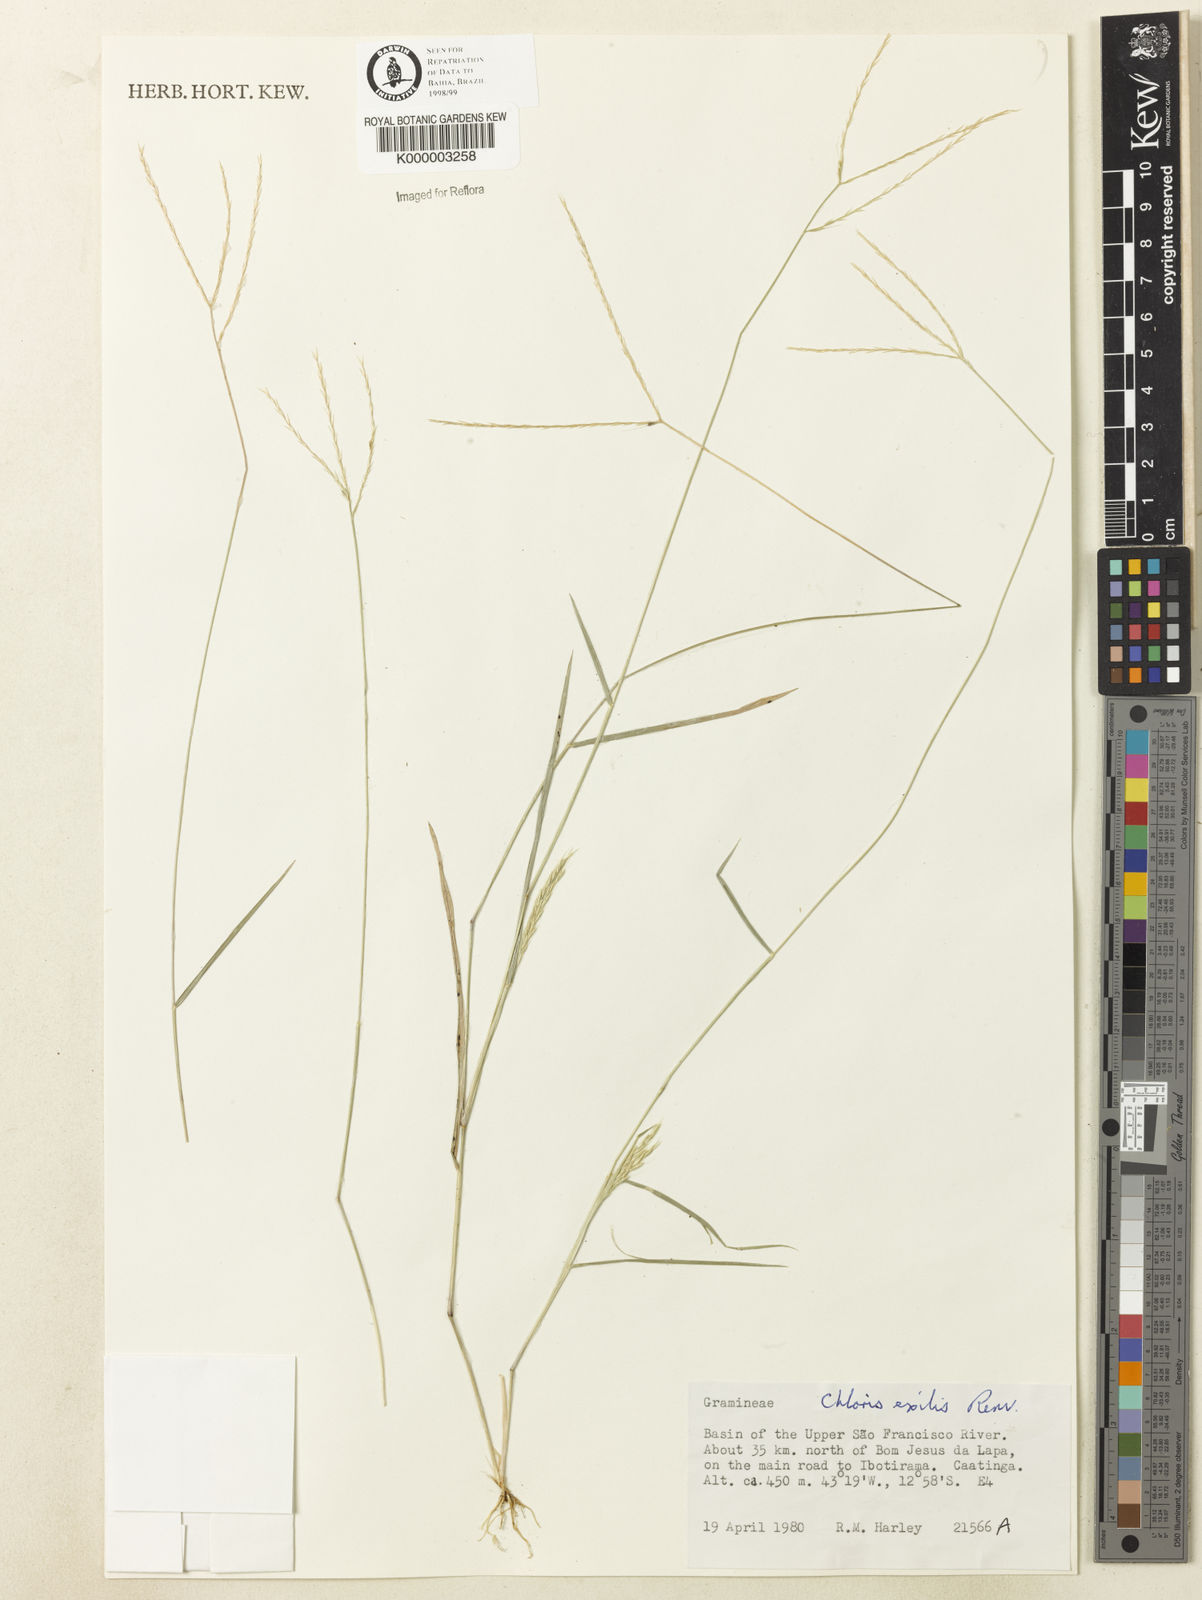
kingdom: Plantae
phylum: Tracheophyta
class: Liliopsida
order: Poales
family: Poaceae
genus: Leptochloa
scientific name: Leptochloa exilis
